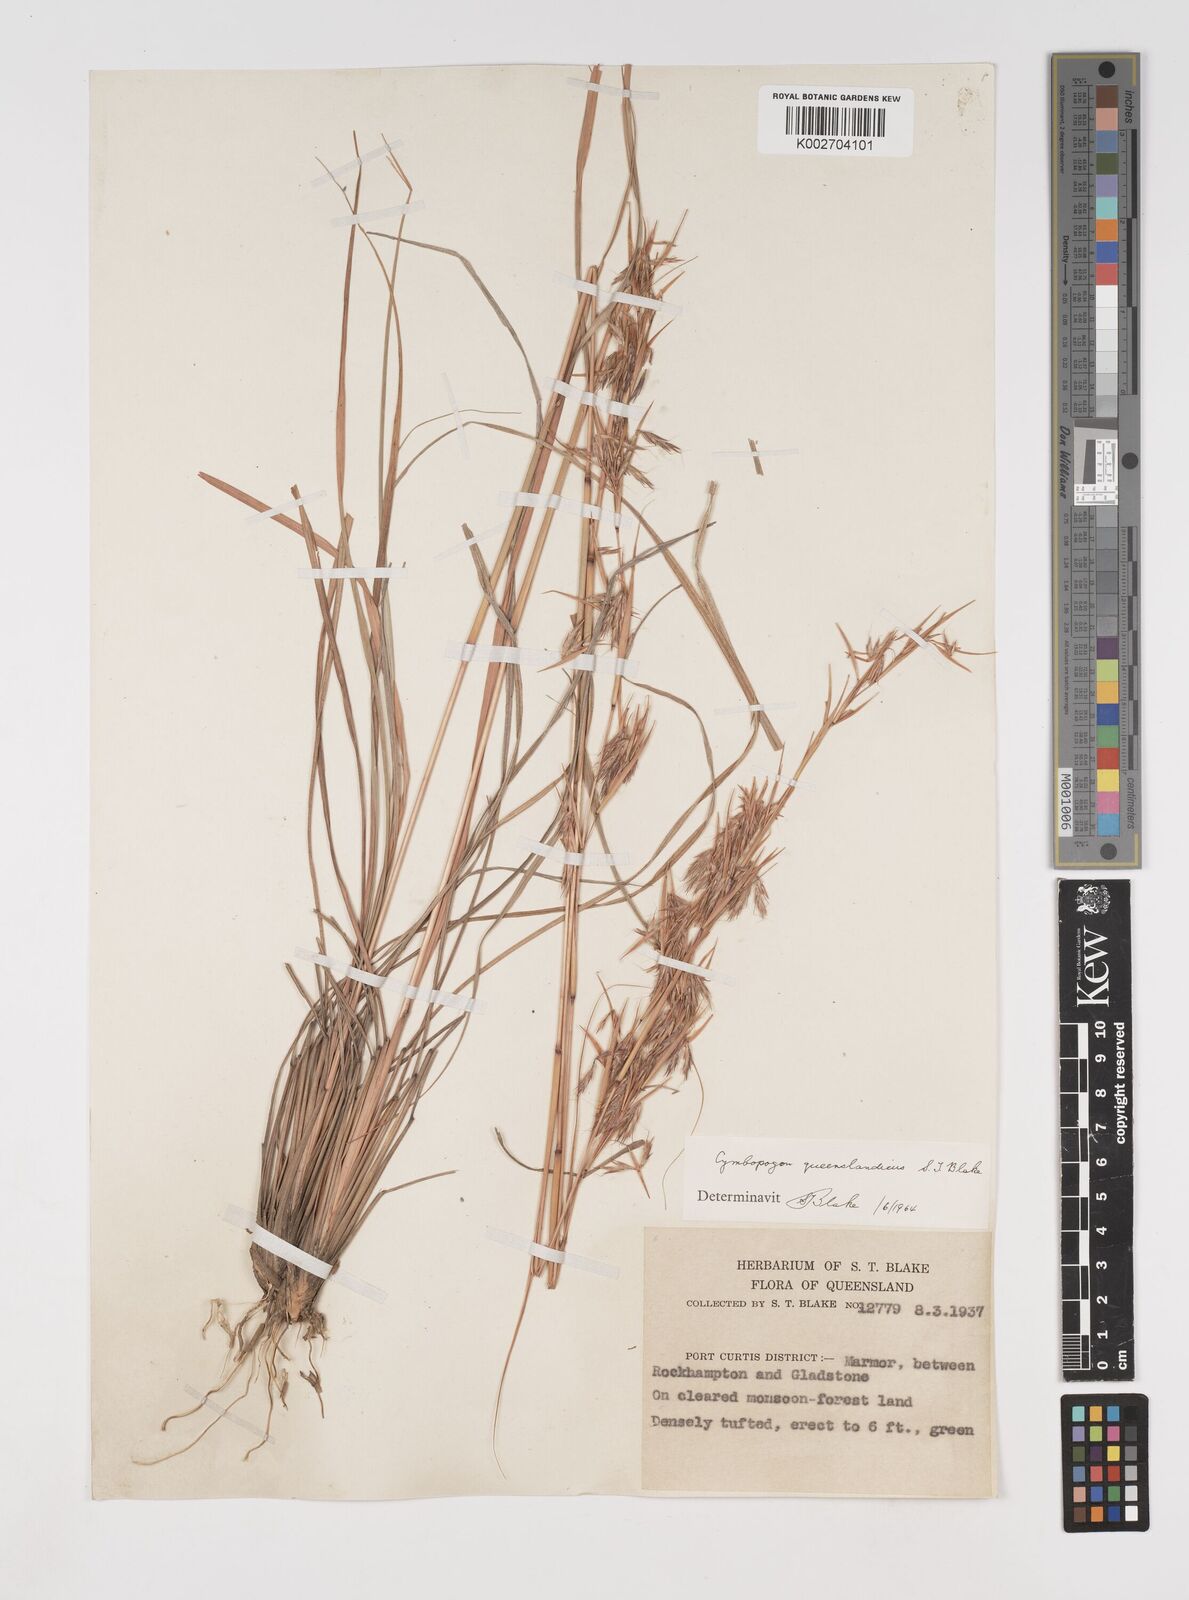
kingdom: Plantae
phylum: Tracheophyta
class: Liliopsida
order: Poales
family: Poaceae
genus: Cymbopogon
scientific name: Cymbopogon queenslandicus
